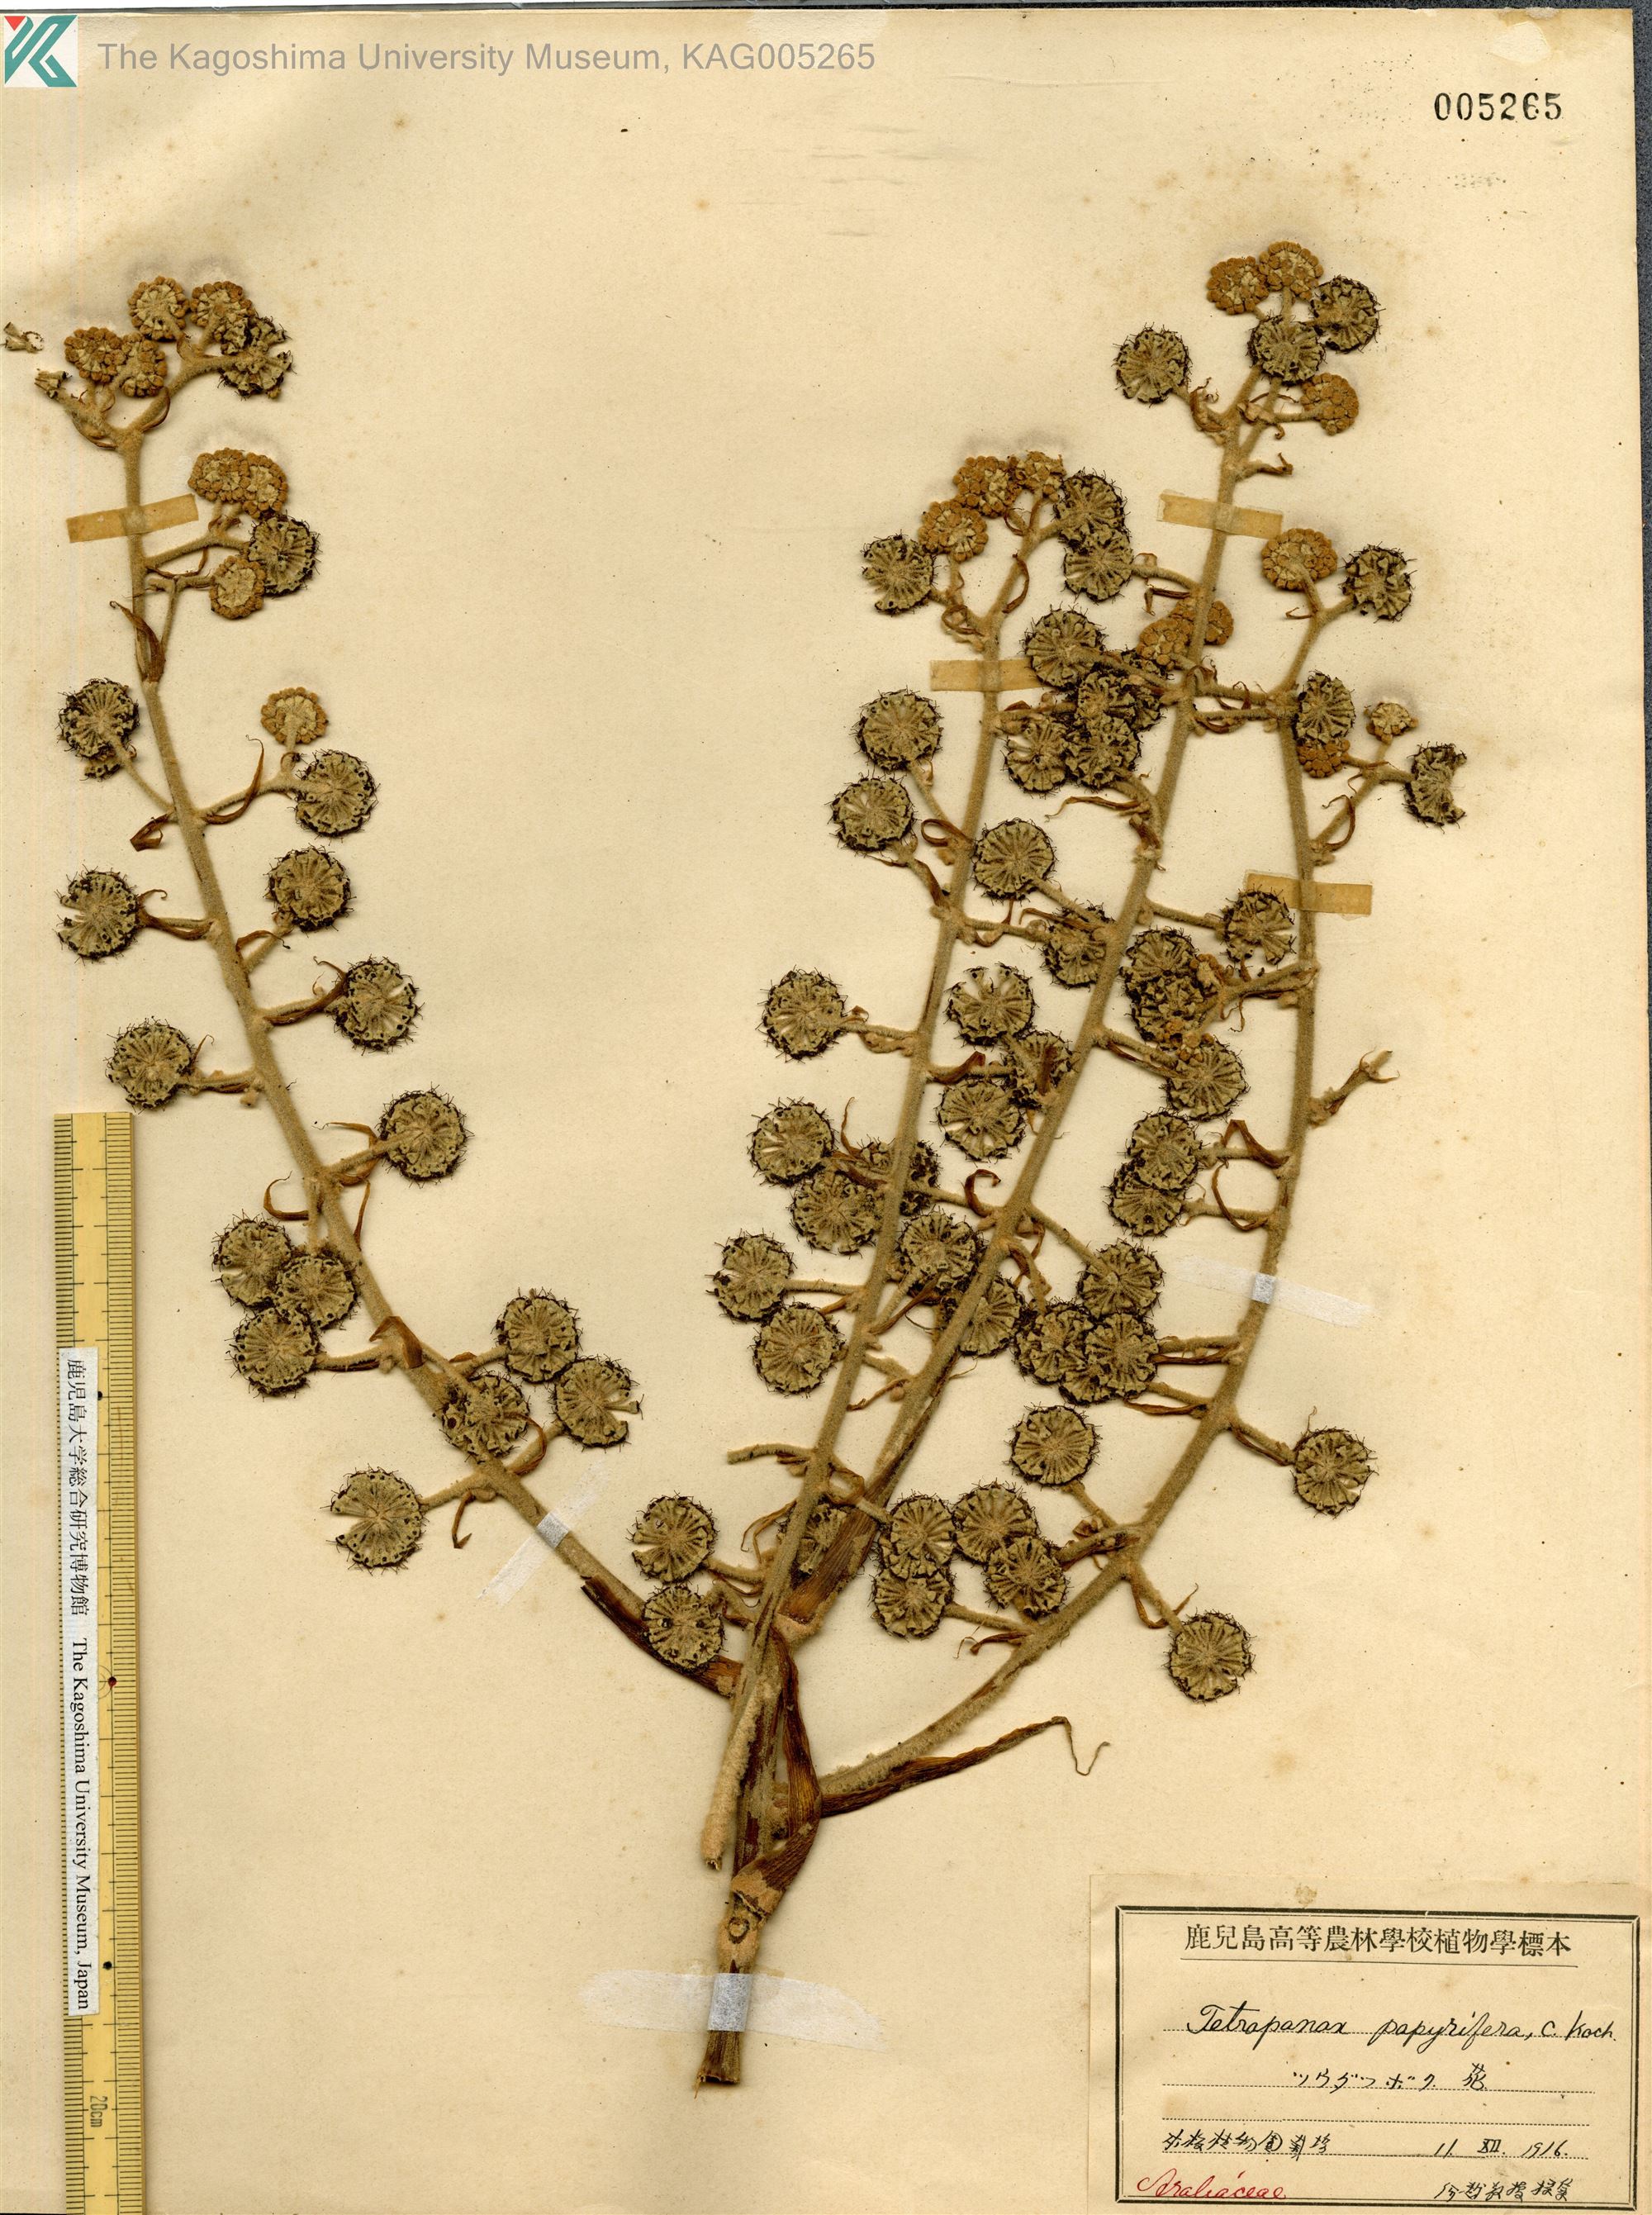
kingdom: Plantae
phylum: Tracheophyta
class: Magnoliopsida
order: Apiales
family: Araliaceae
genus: Tetrapanax
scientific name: Tetrapanax papyrifer
